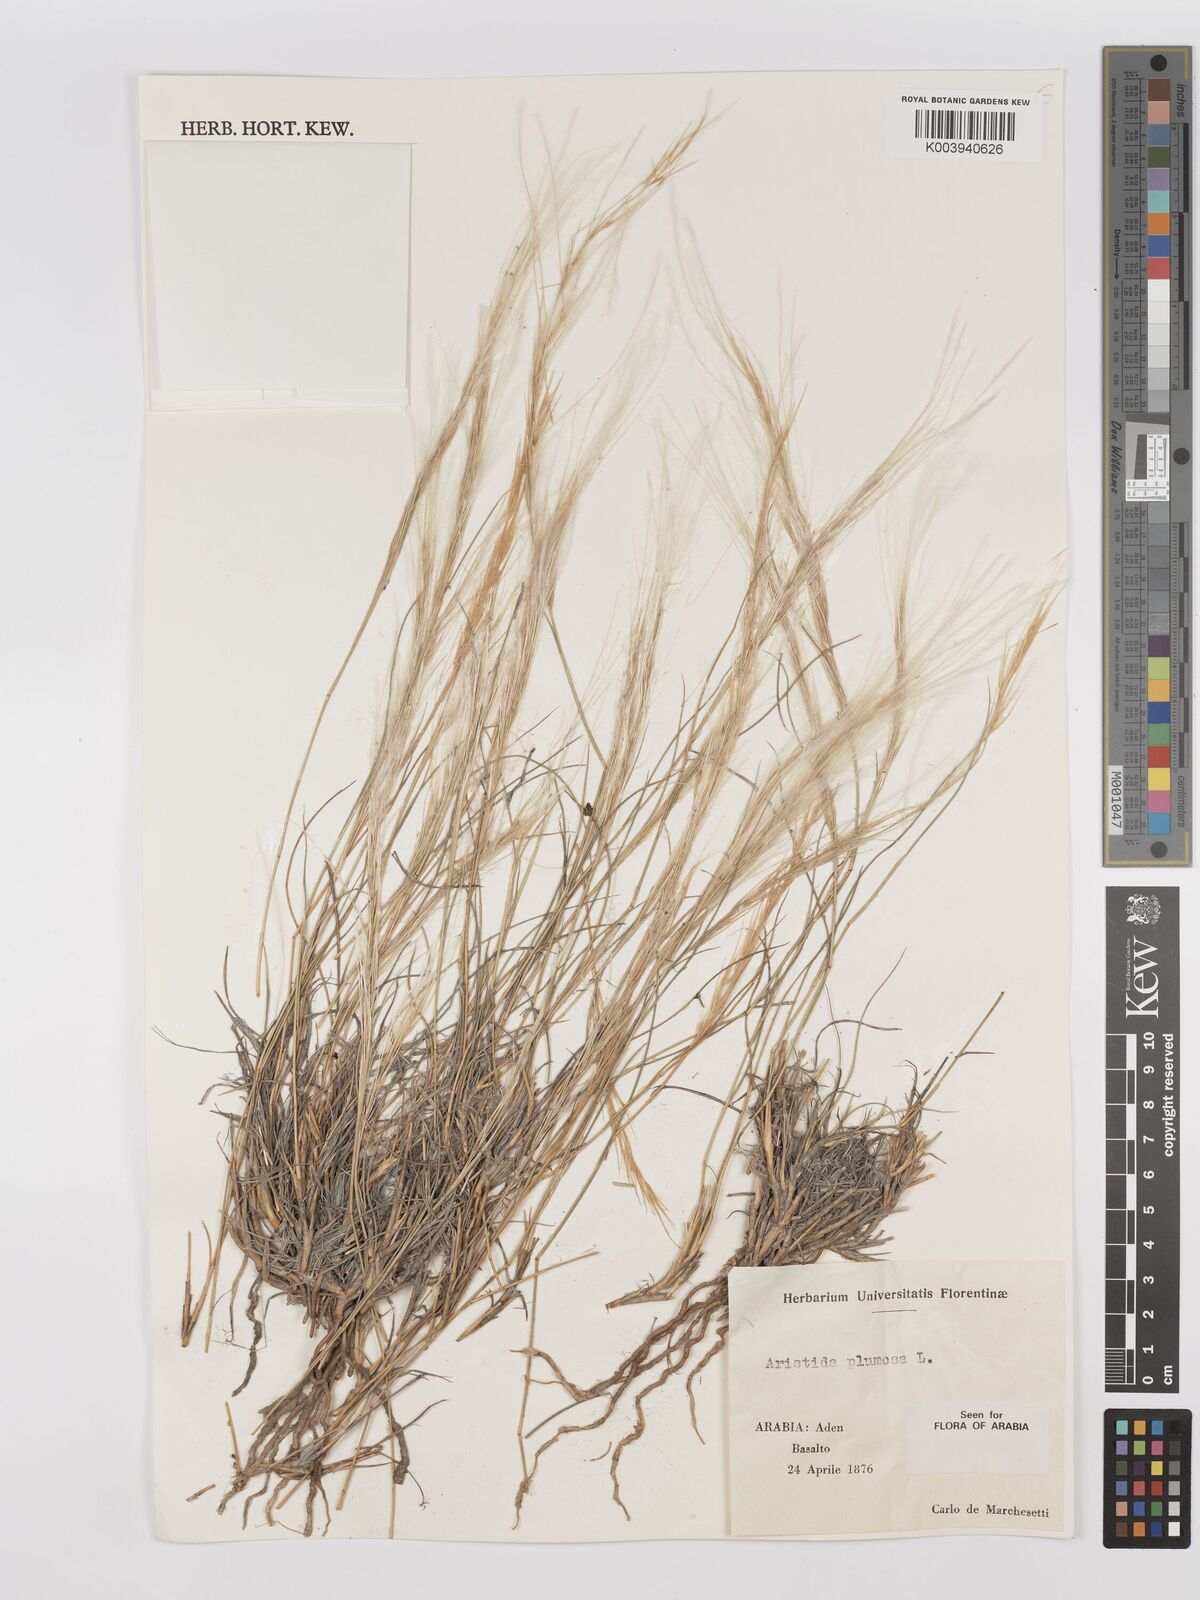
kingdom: Plantae
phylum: Tracheophyta
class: Liliopsida
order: Poales
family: Poaceae
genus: Stipagrostis
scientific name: Stipagrostis plumosa
